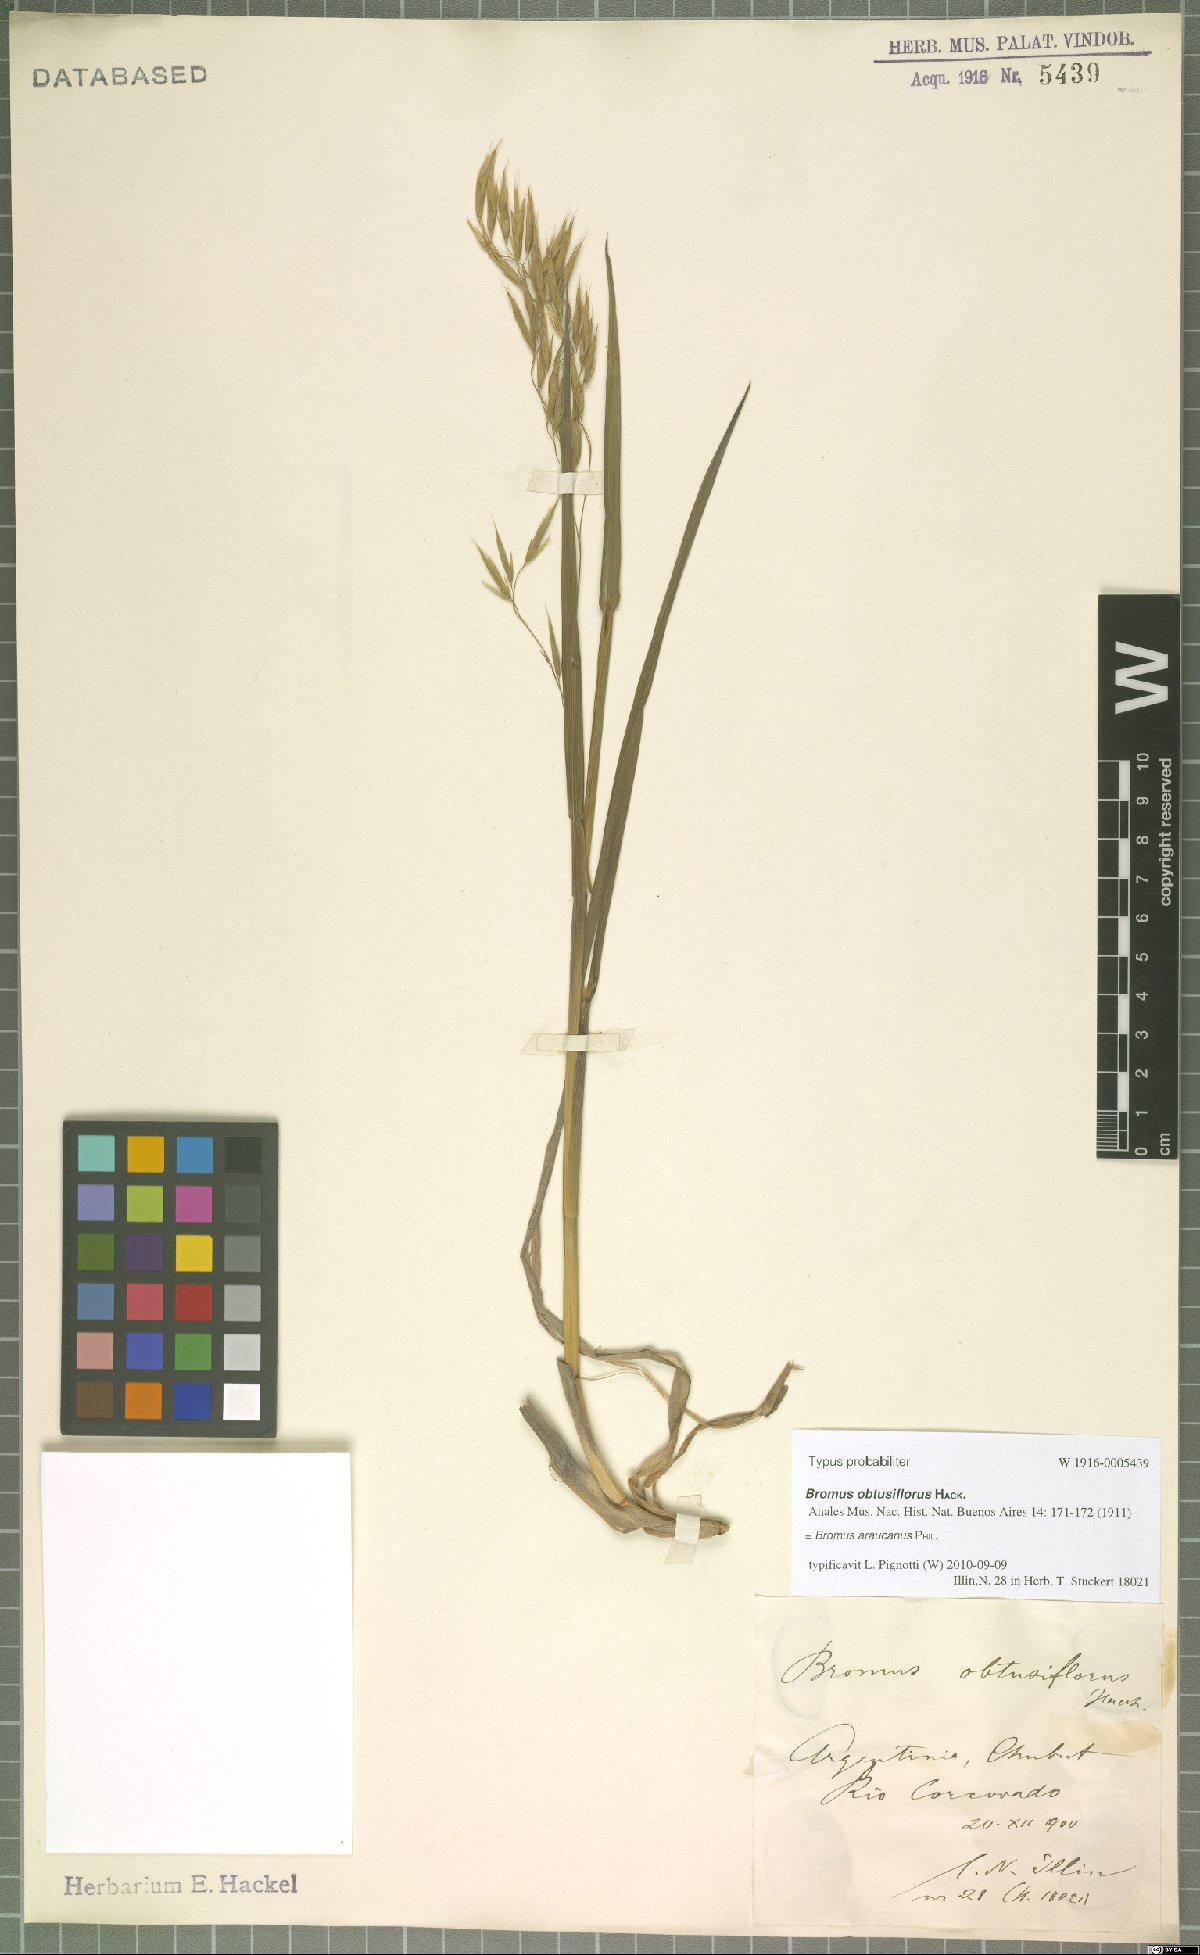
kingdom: Plantae
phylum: Tracheophyta
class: Liliopsida
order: Poales
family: Poaceae
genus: Bromus
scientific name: Bromus araucanus
